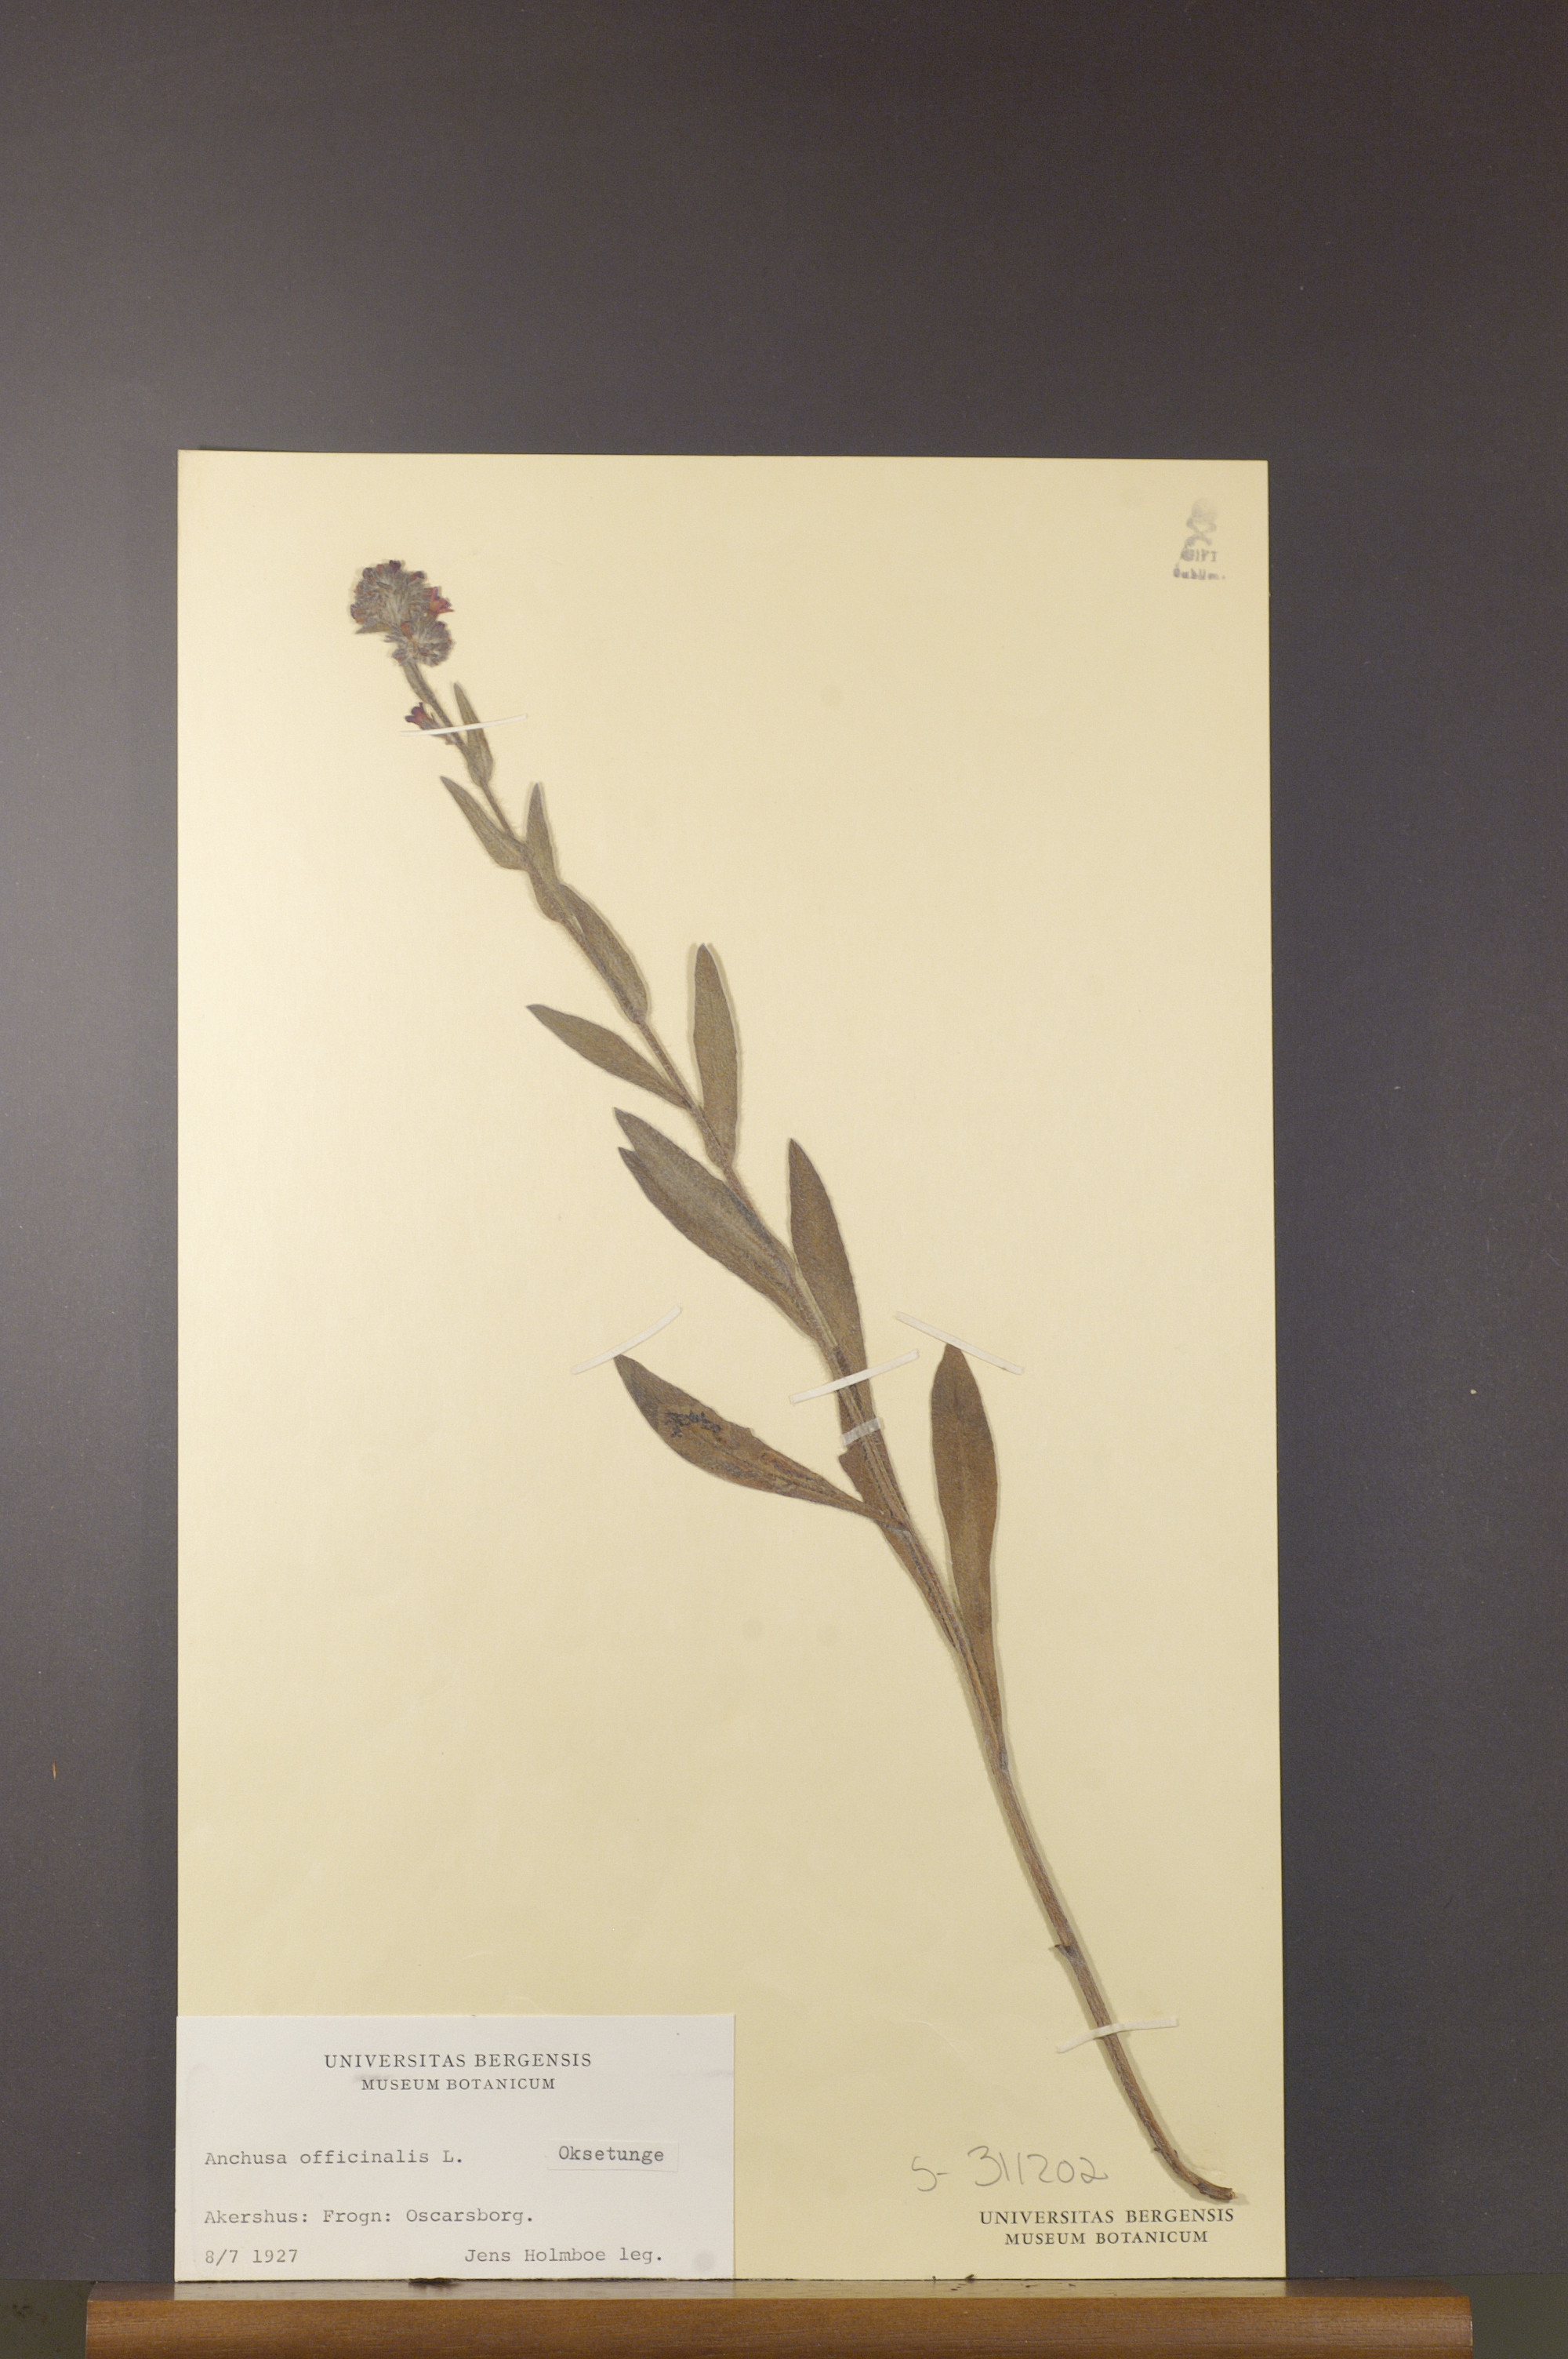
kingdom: Plantae
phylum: Tracheophyta
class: Magnoliopsida
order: Boraginales
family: Boraginaceae
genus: Anchusa
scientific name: Anchusa officinalis
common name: Alkanet
